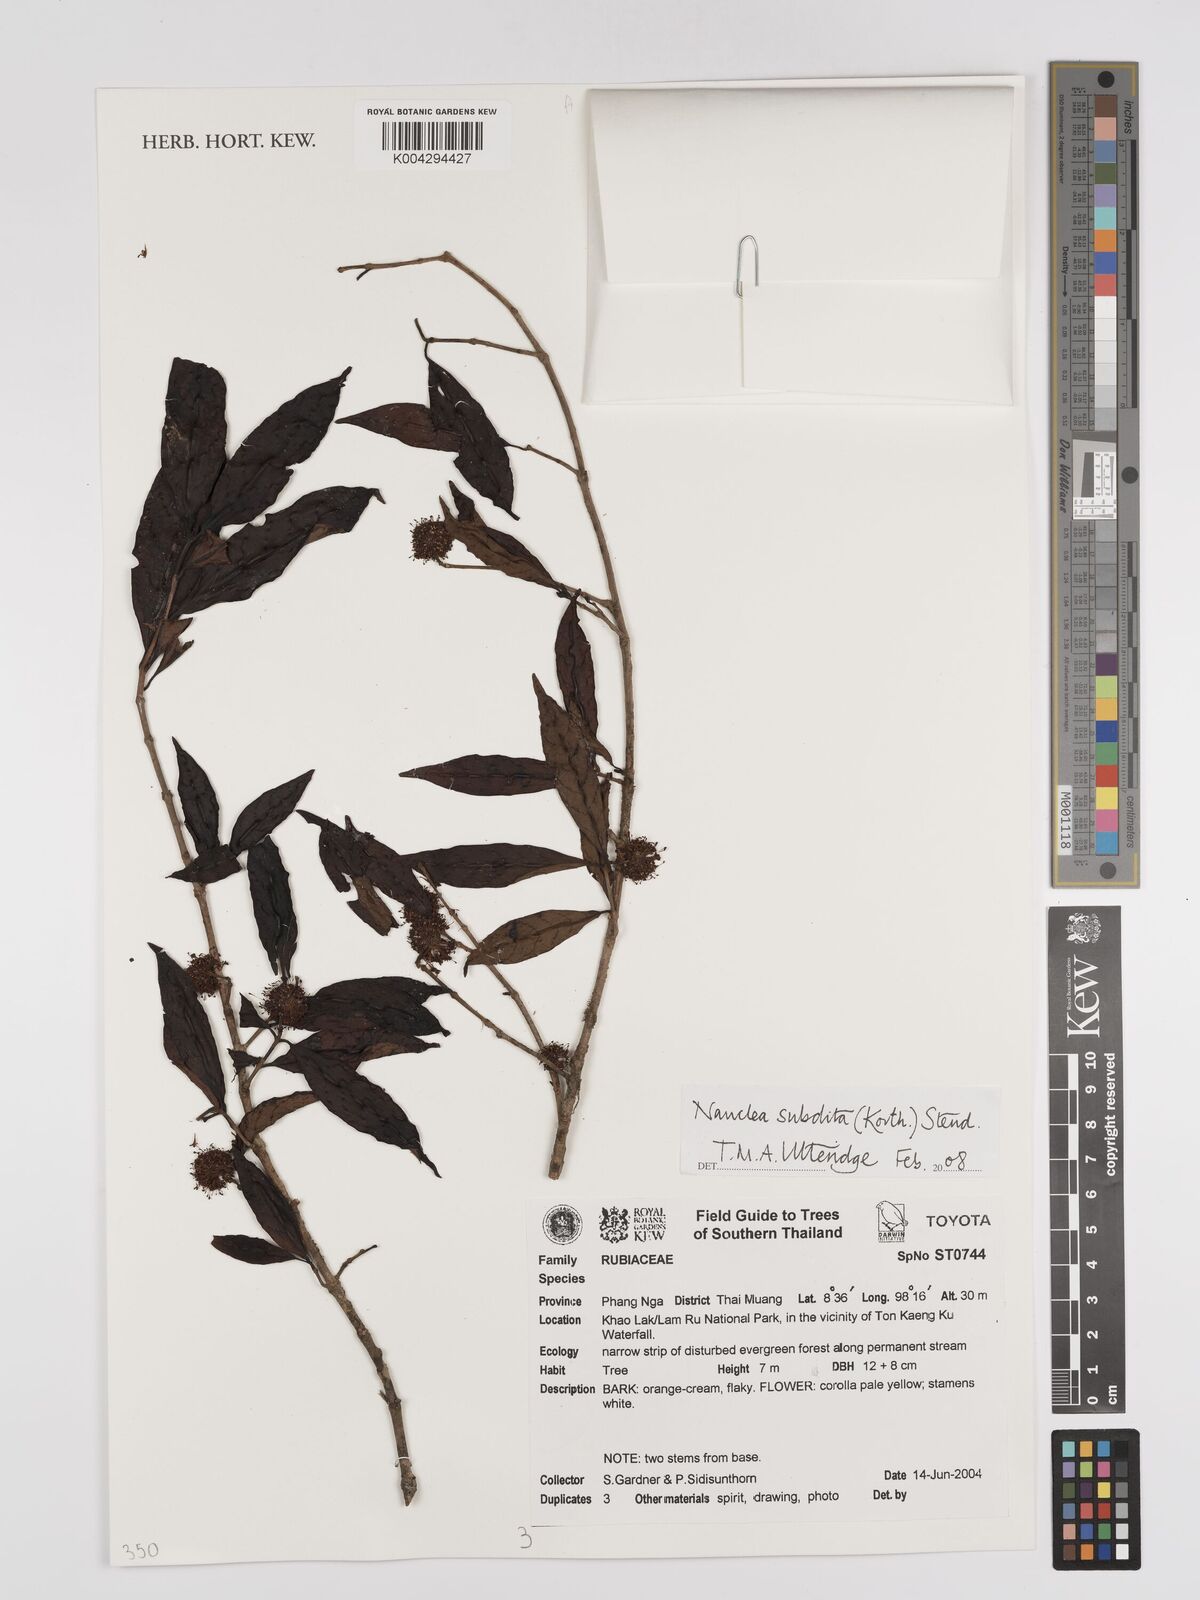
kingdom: Plantae
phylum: Tracheophyta
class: Magnoliopsida
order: Gentianales
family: Rubiaceae
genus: Nauclea
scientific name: Nauclea subdita
